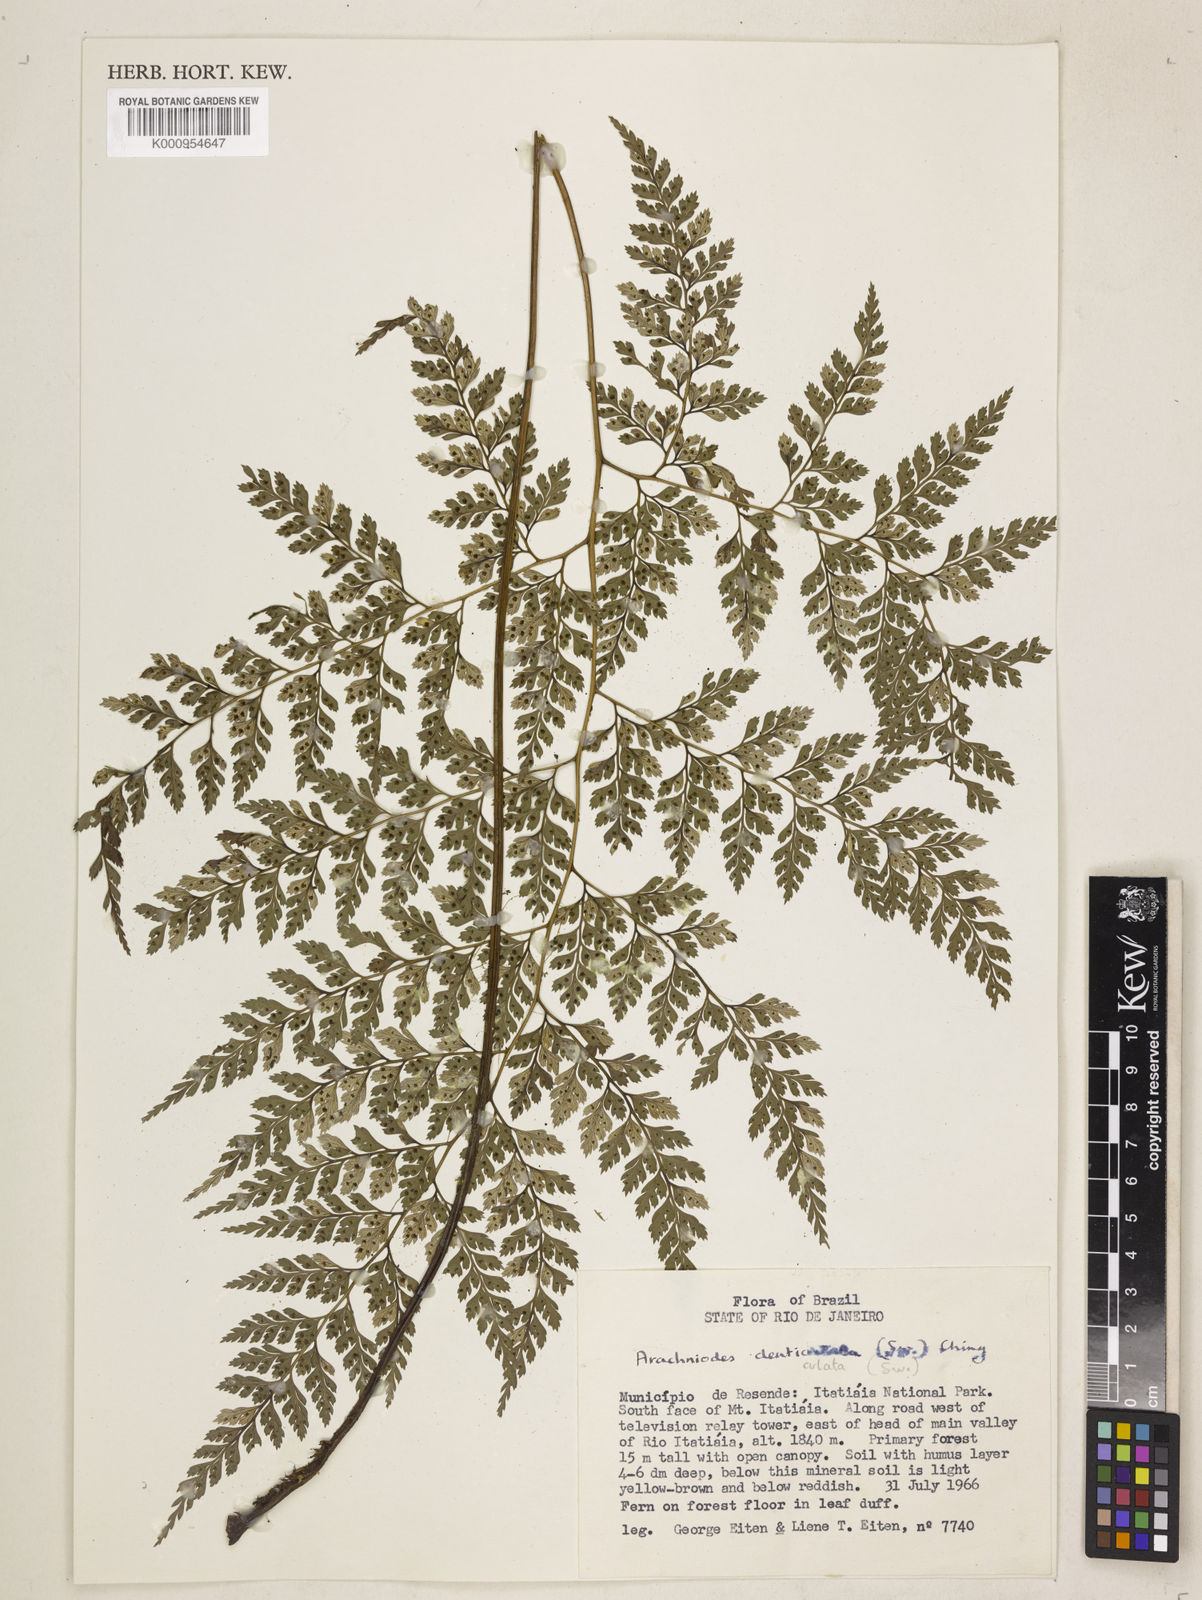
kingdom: Plantae
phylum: Tracheophyta
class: Polypodiopsida
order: Polypodiales
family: Dryopteridaceae
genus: Arachniodes
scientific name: Arachniodes denticulata
